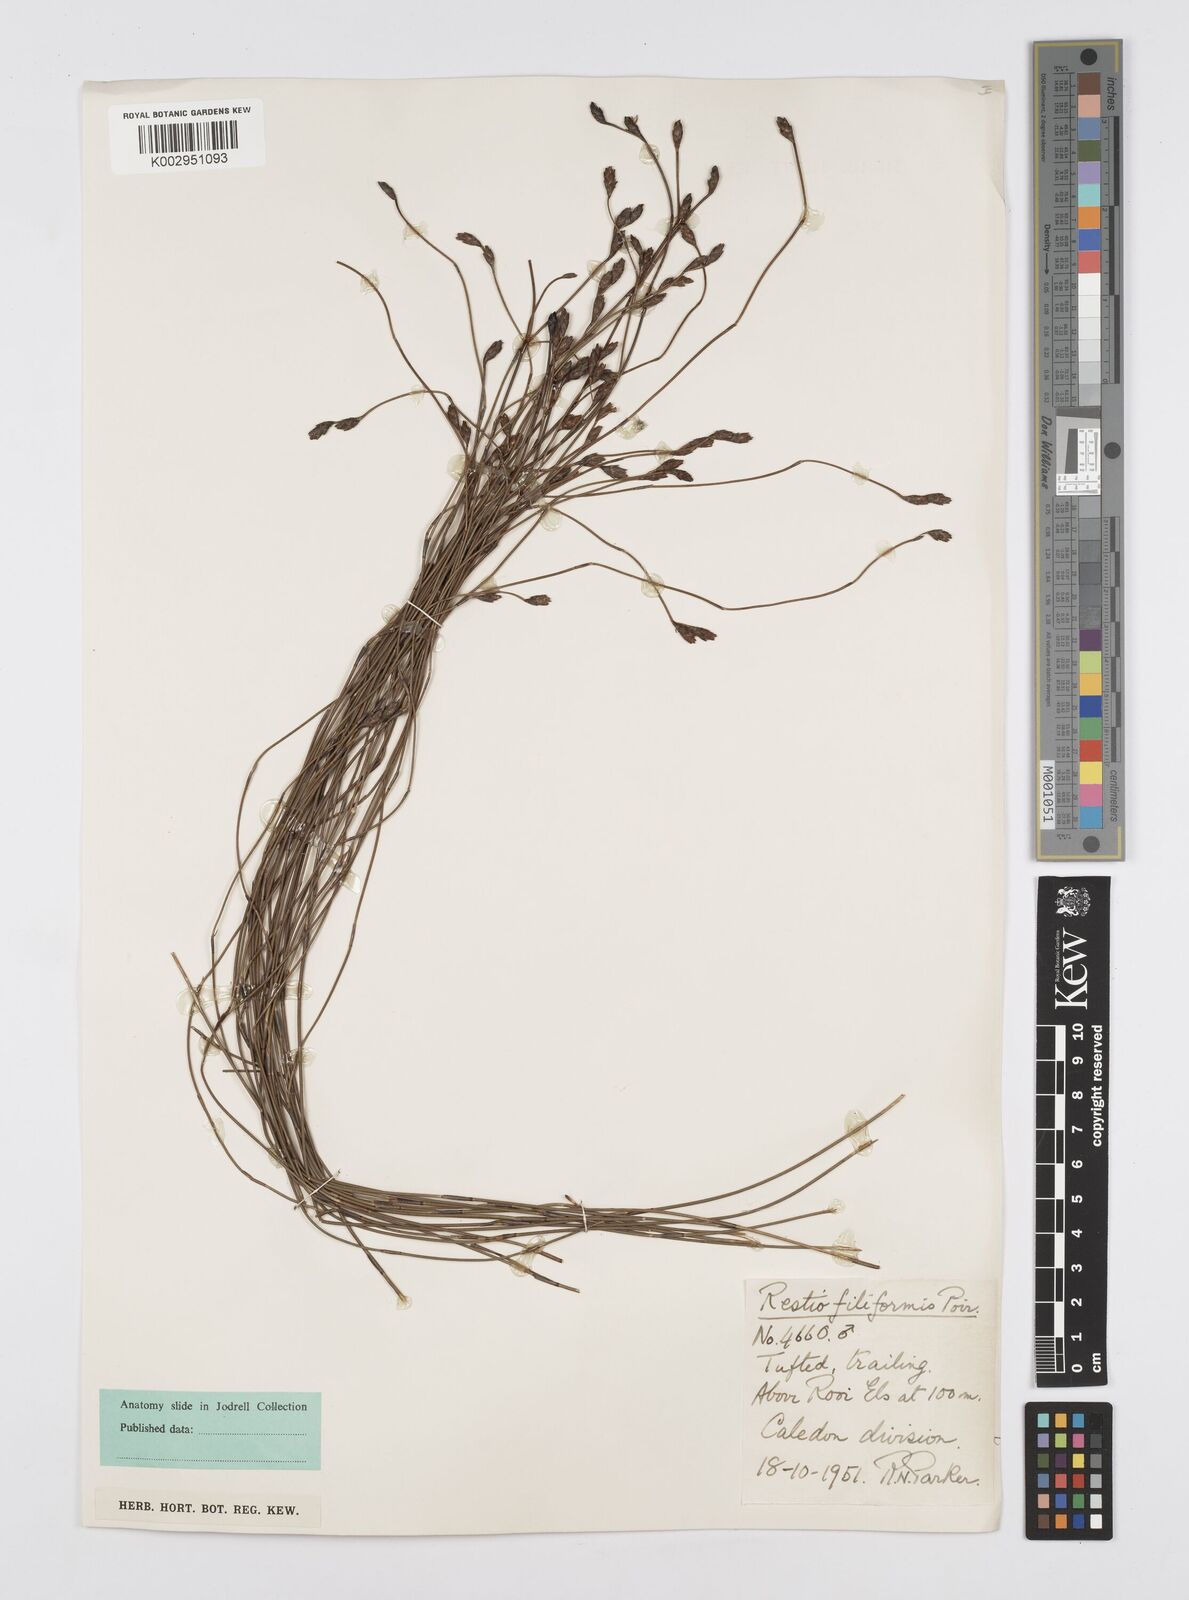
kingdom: Plantae
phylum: Tracheophyta
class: Liliopsida
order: Poales
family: Restionaceae
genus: Restio
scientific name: Restio filiformis
